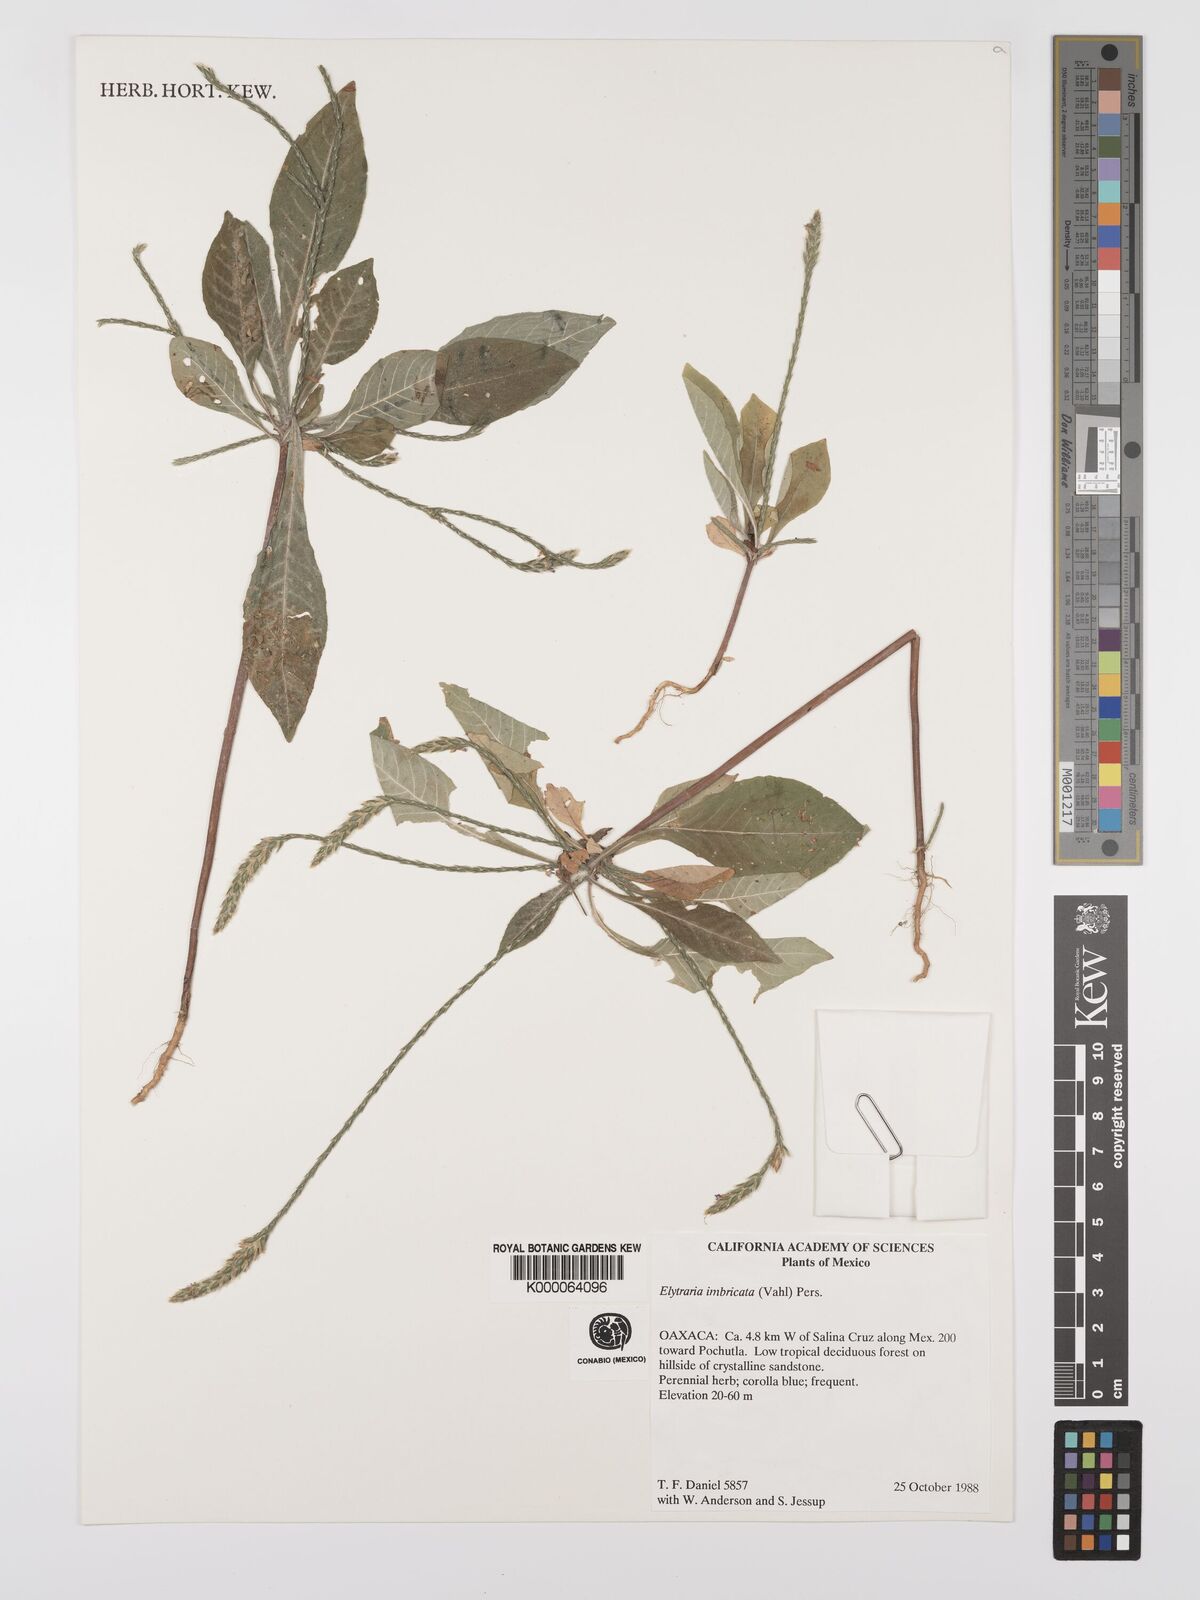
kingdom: Plantae
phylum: Tracheophyta
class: Magnoliopsida
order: Lamiales
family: Acanthaceae
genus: Elytraria
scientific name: Elytraria imbricata
